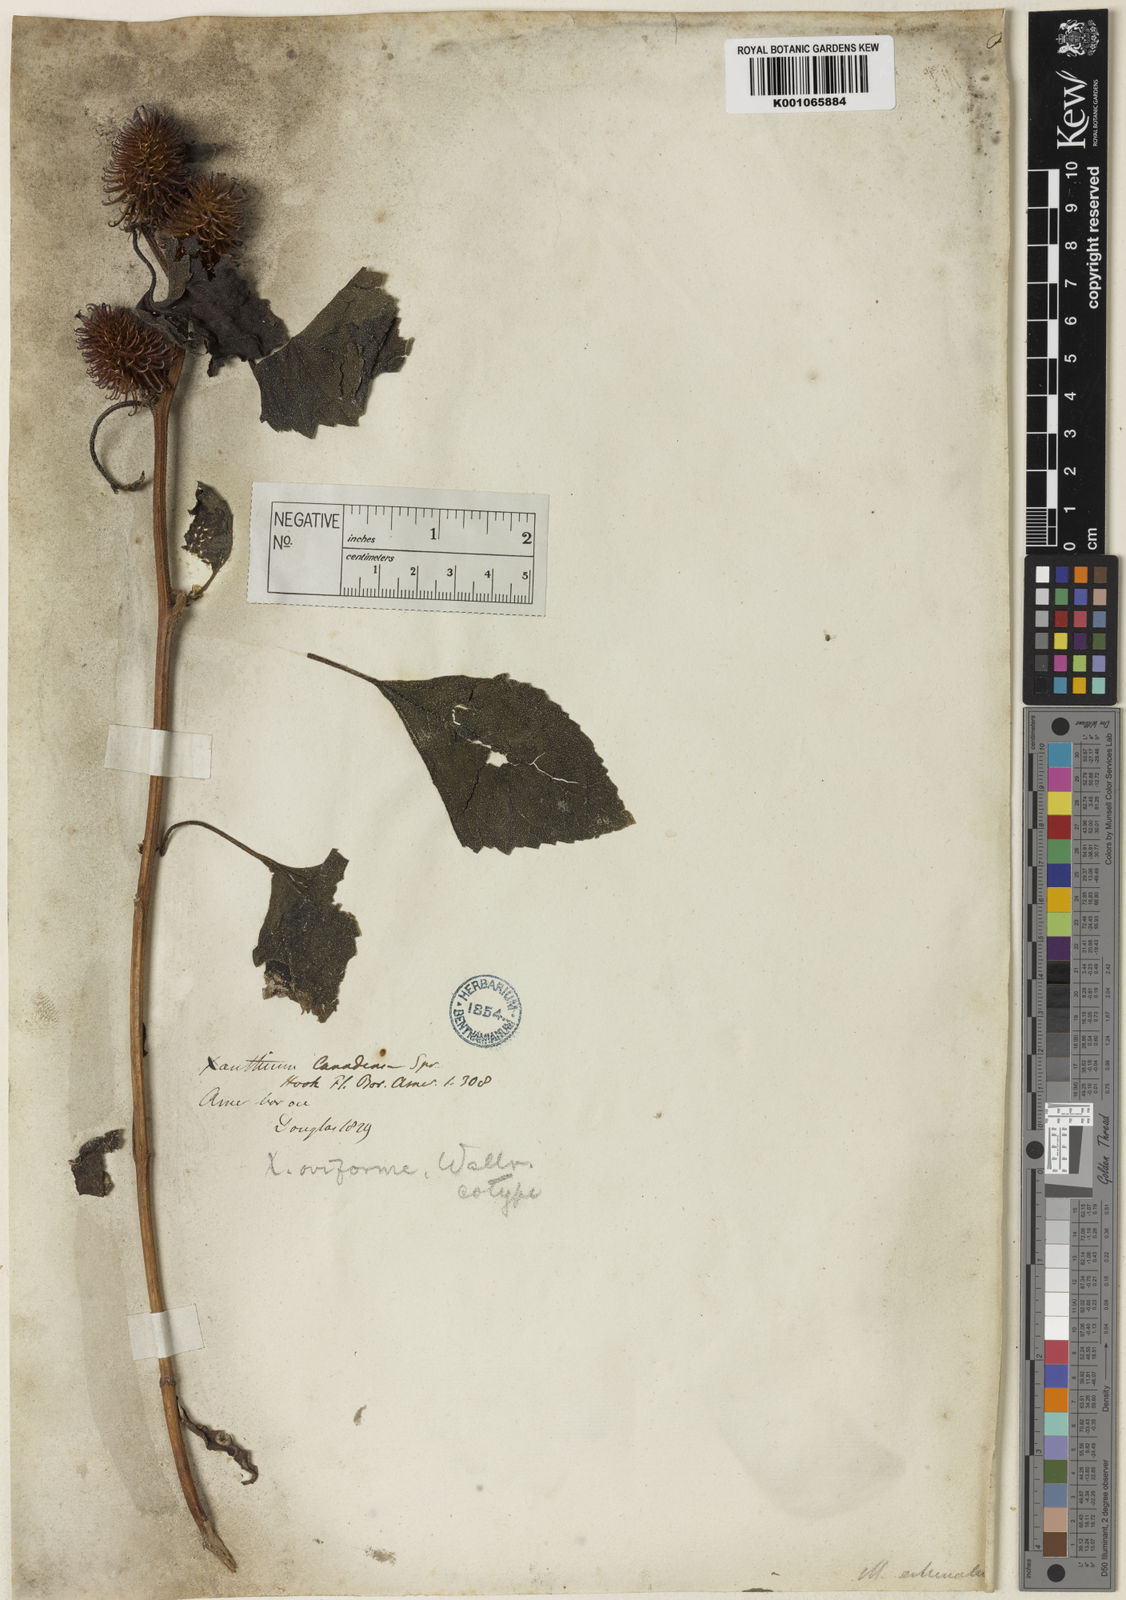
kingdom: Plantae
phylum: Tracheophyta
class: Magnoliopsida
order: Asterales
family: Asteraceae
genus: Xanthium
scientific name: Xanthium strumarium
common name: Rough cocklebur
